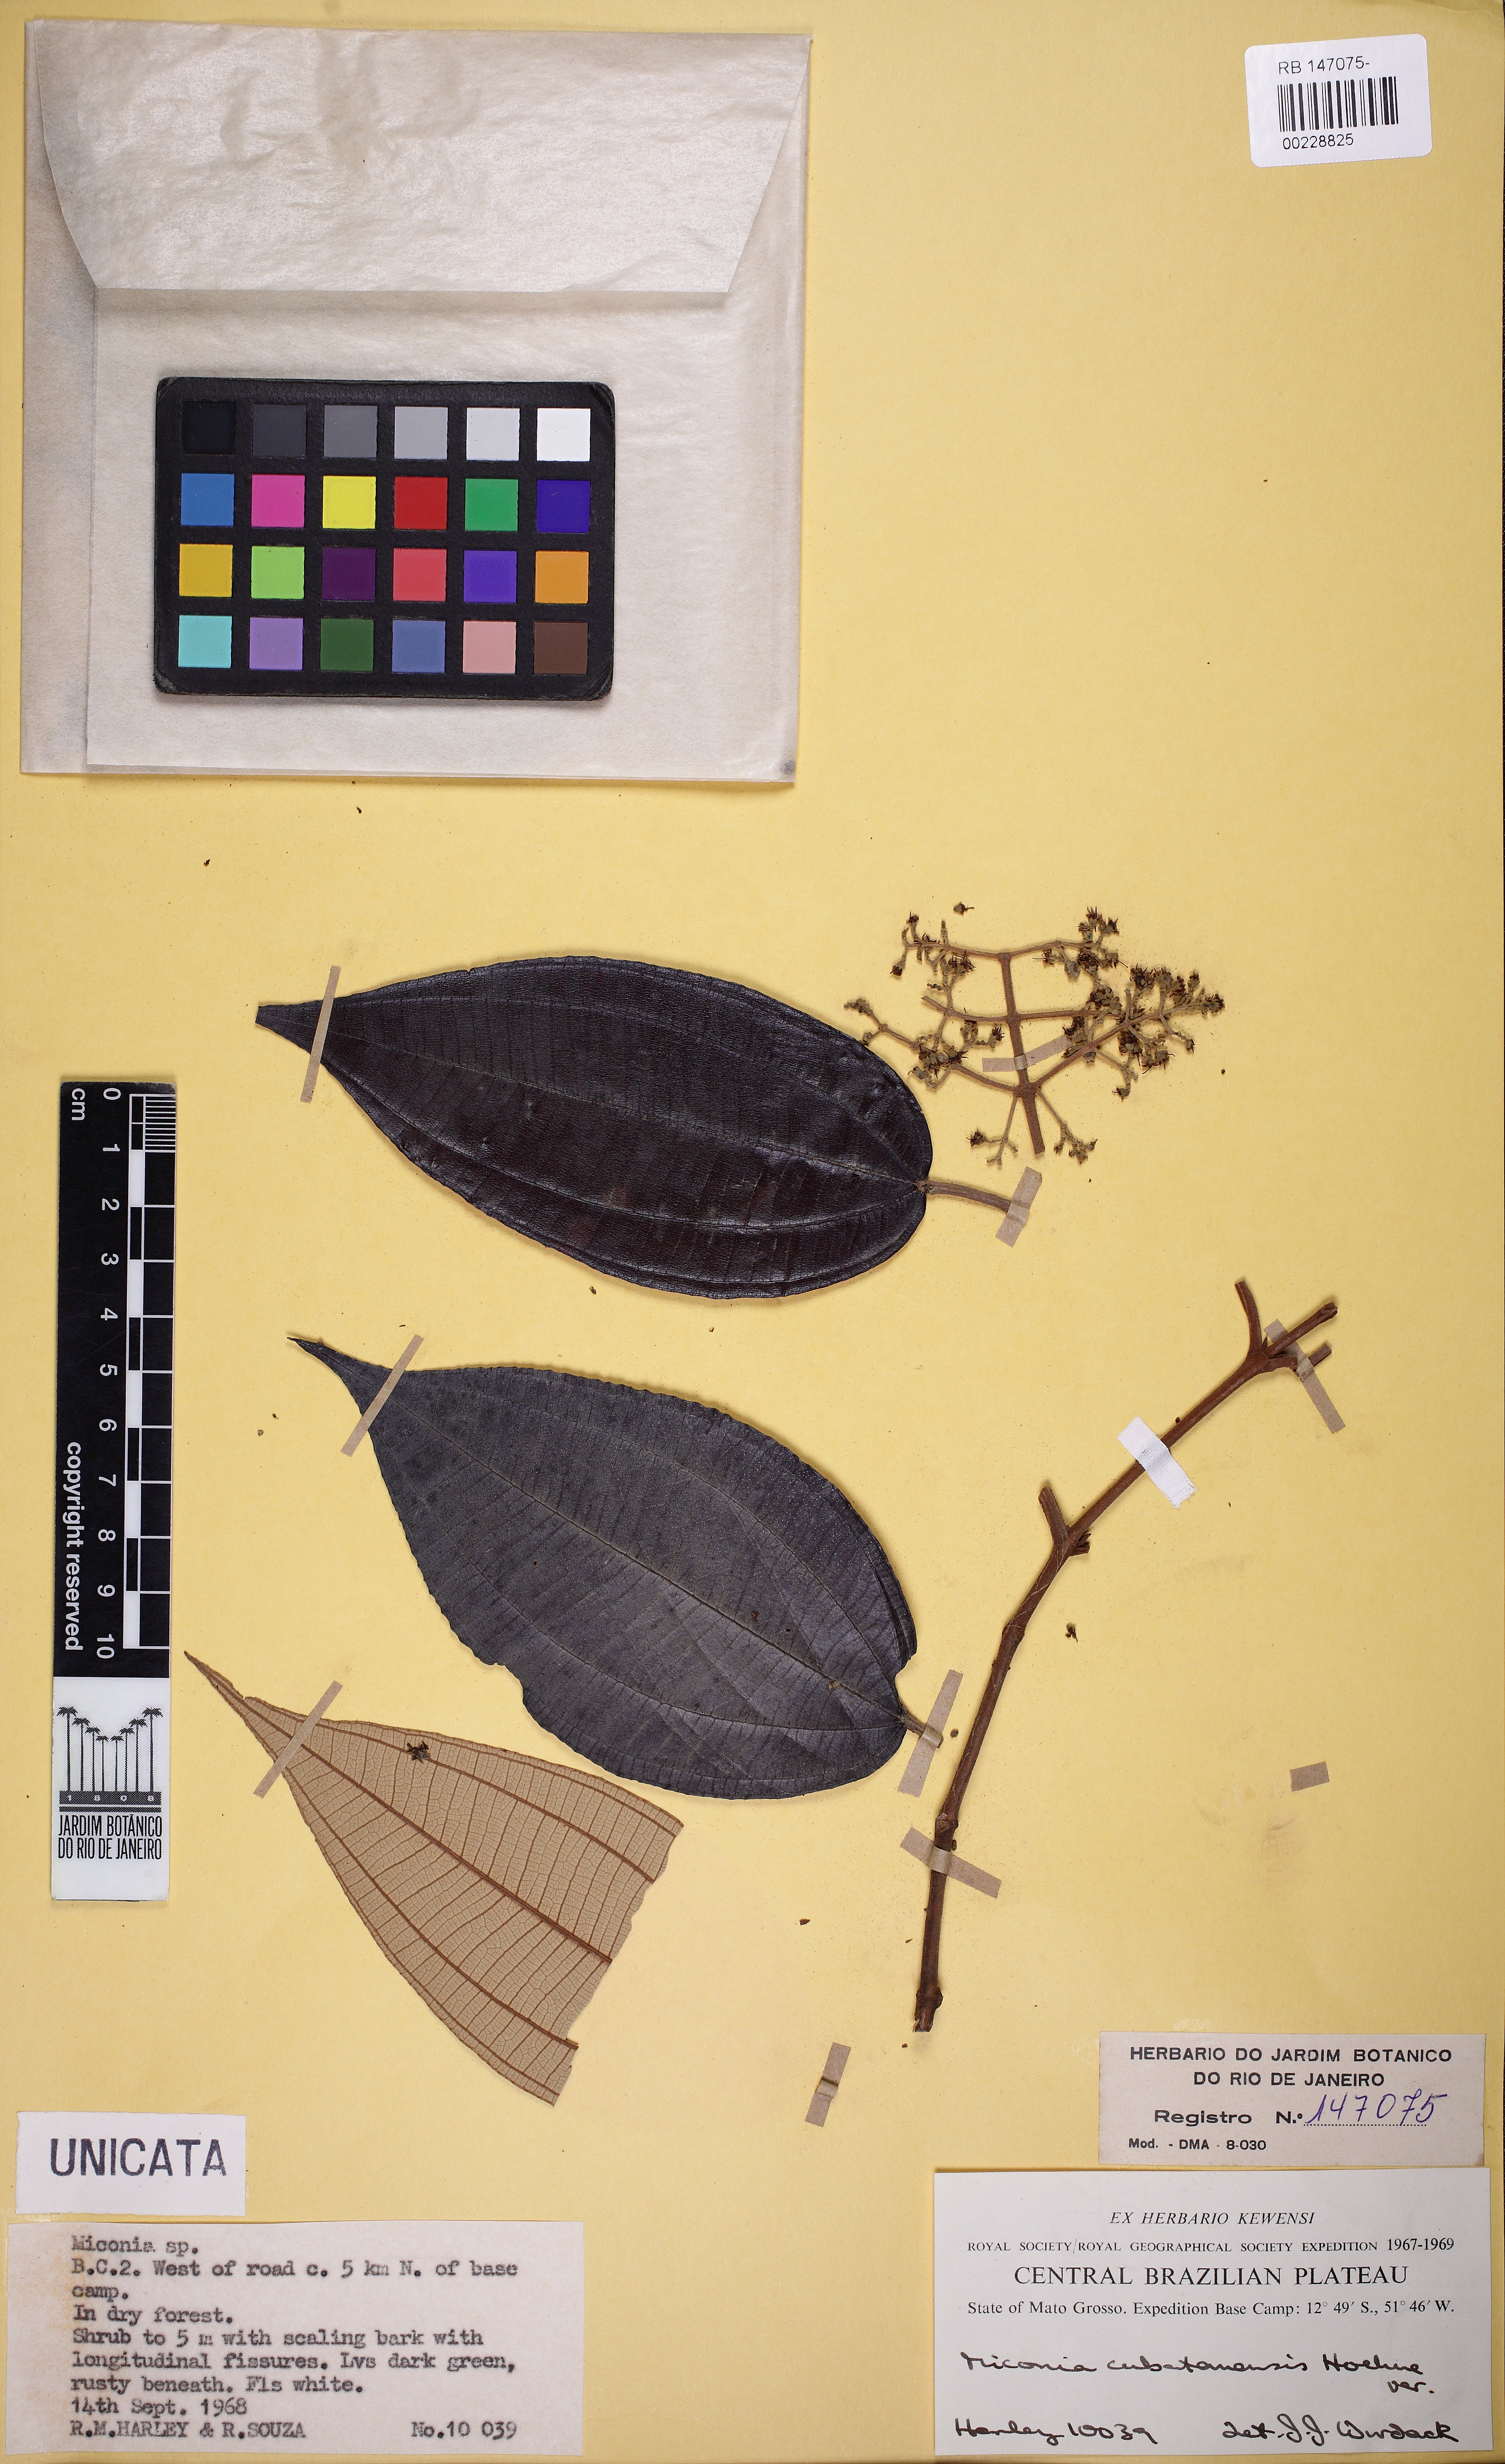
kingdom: Plantae
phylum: Tracheophyta
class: Magnoliopsida
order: Myrtales
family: Melastomataceae
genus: Miconia
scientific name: Miconia crassinervia
